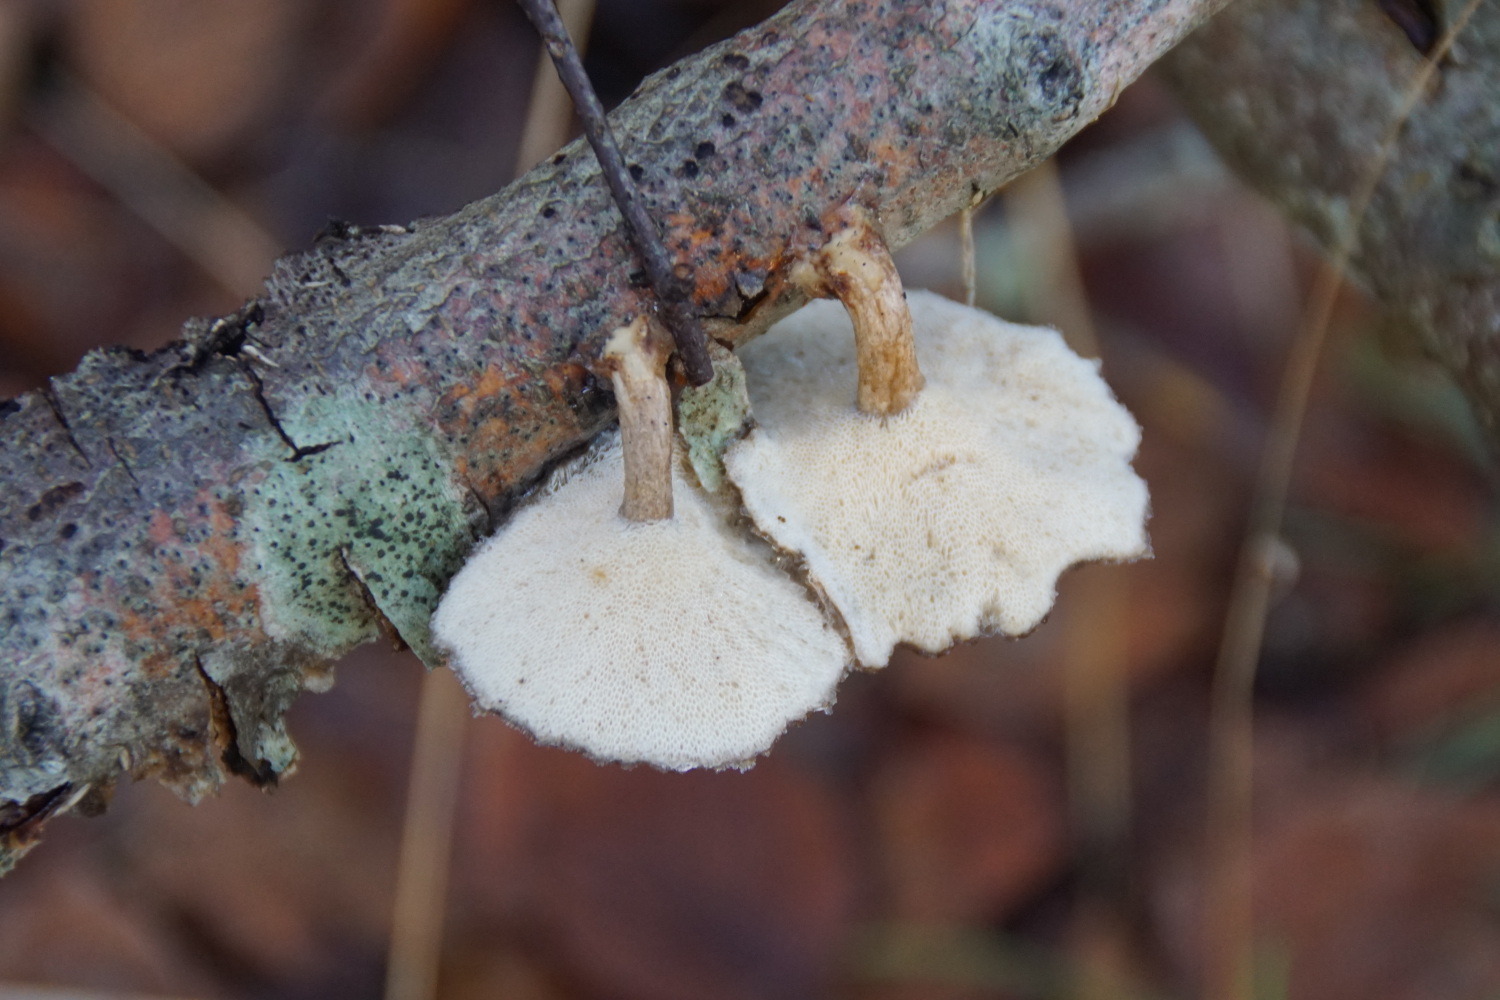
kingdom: Fungi
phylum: Basidiomycota
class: Agaricomycetes
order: Polyporales
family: Polyporaceae
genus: Lentinus
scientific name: Lentinus brumalis
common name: vinter-stilkporesvamp
